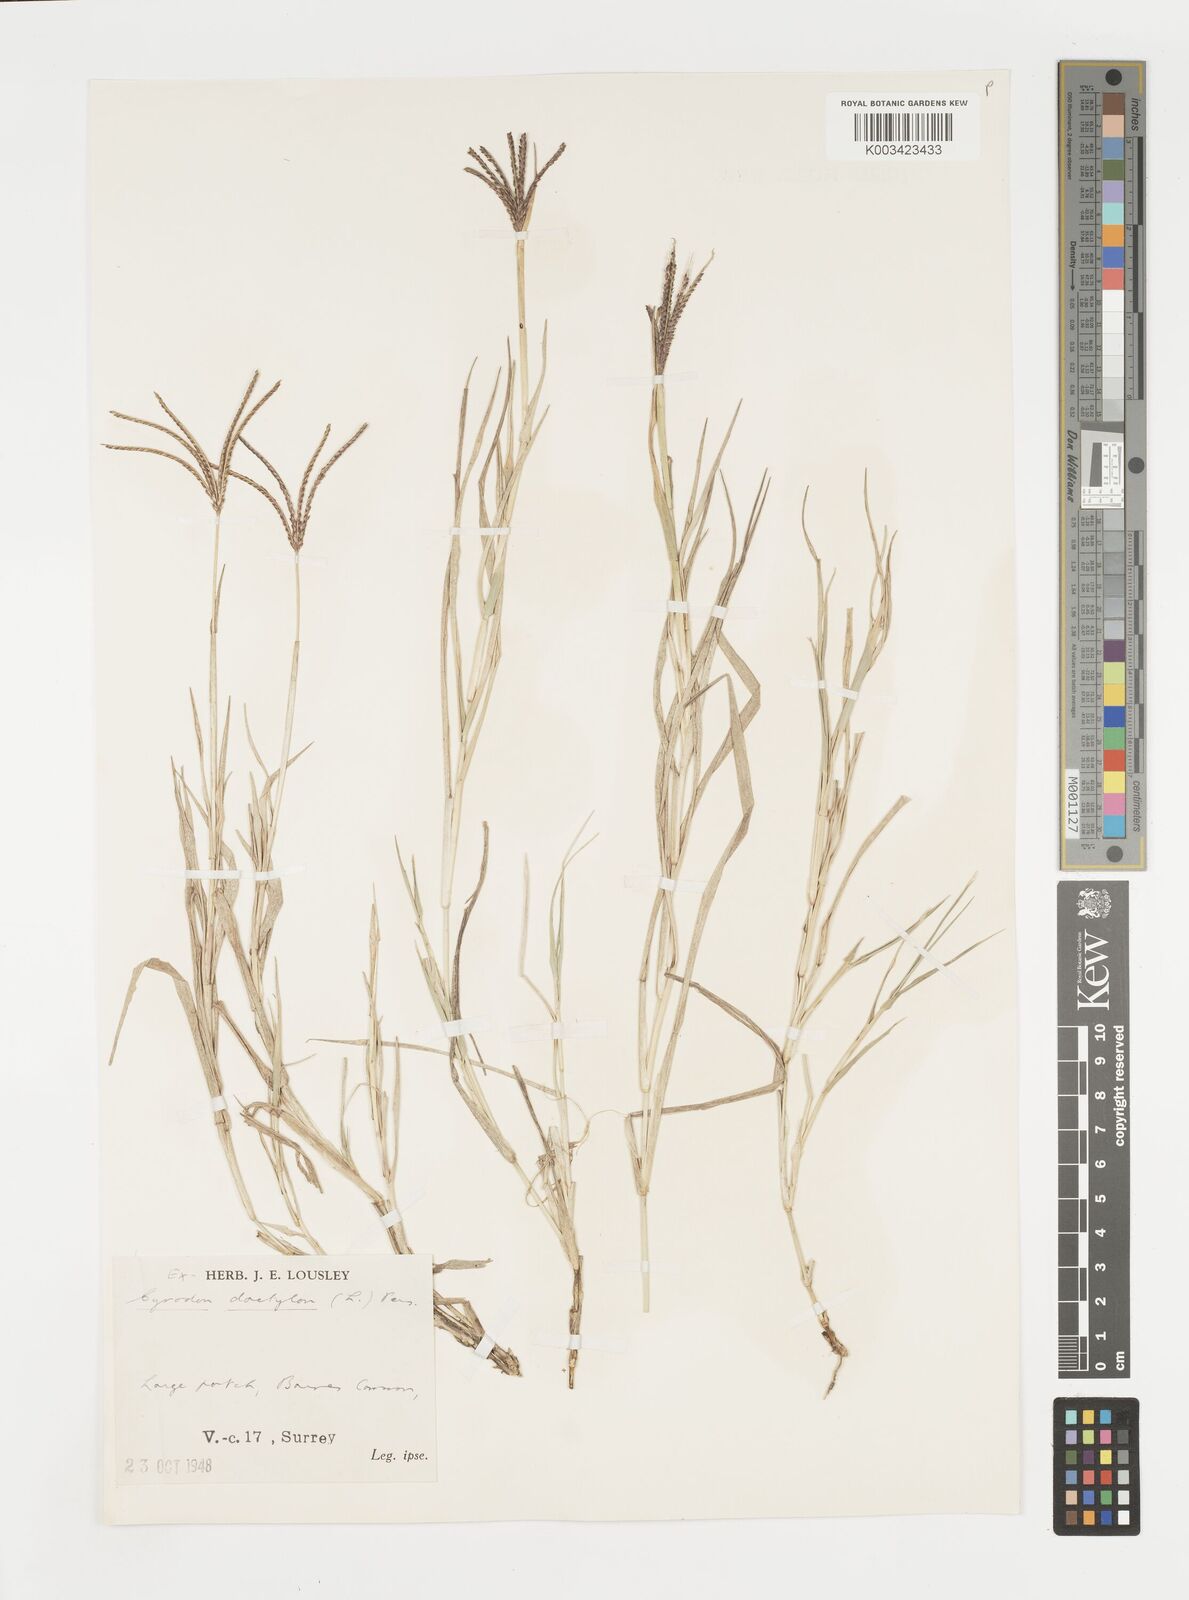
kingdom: Plantae
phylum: Tracheophyta
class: Liliopsida
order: Poales
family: Poaceae
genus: Cynodon
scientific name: Cynodon dactylon
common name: Bermuda grass
